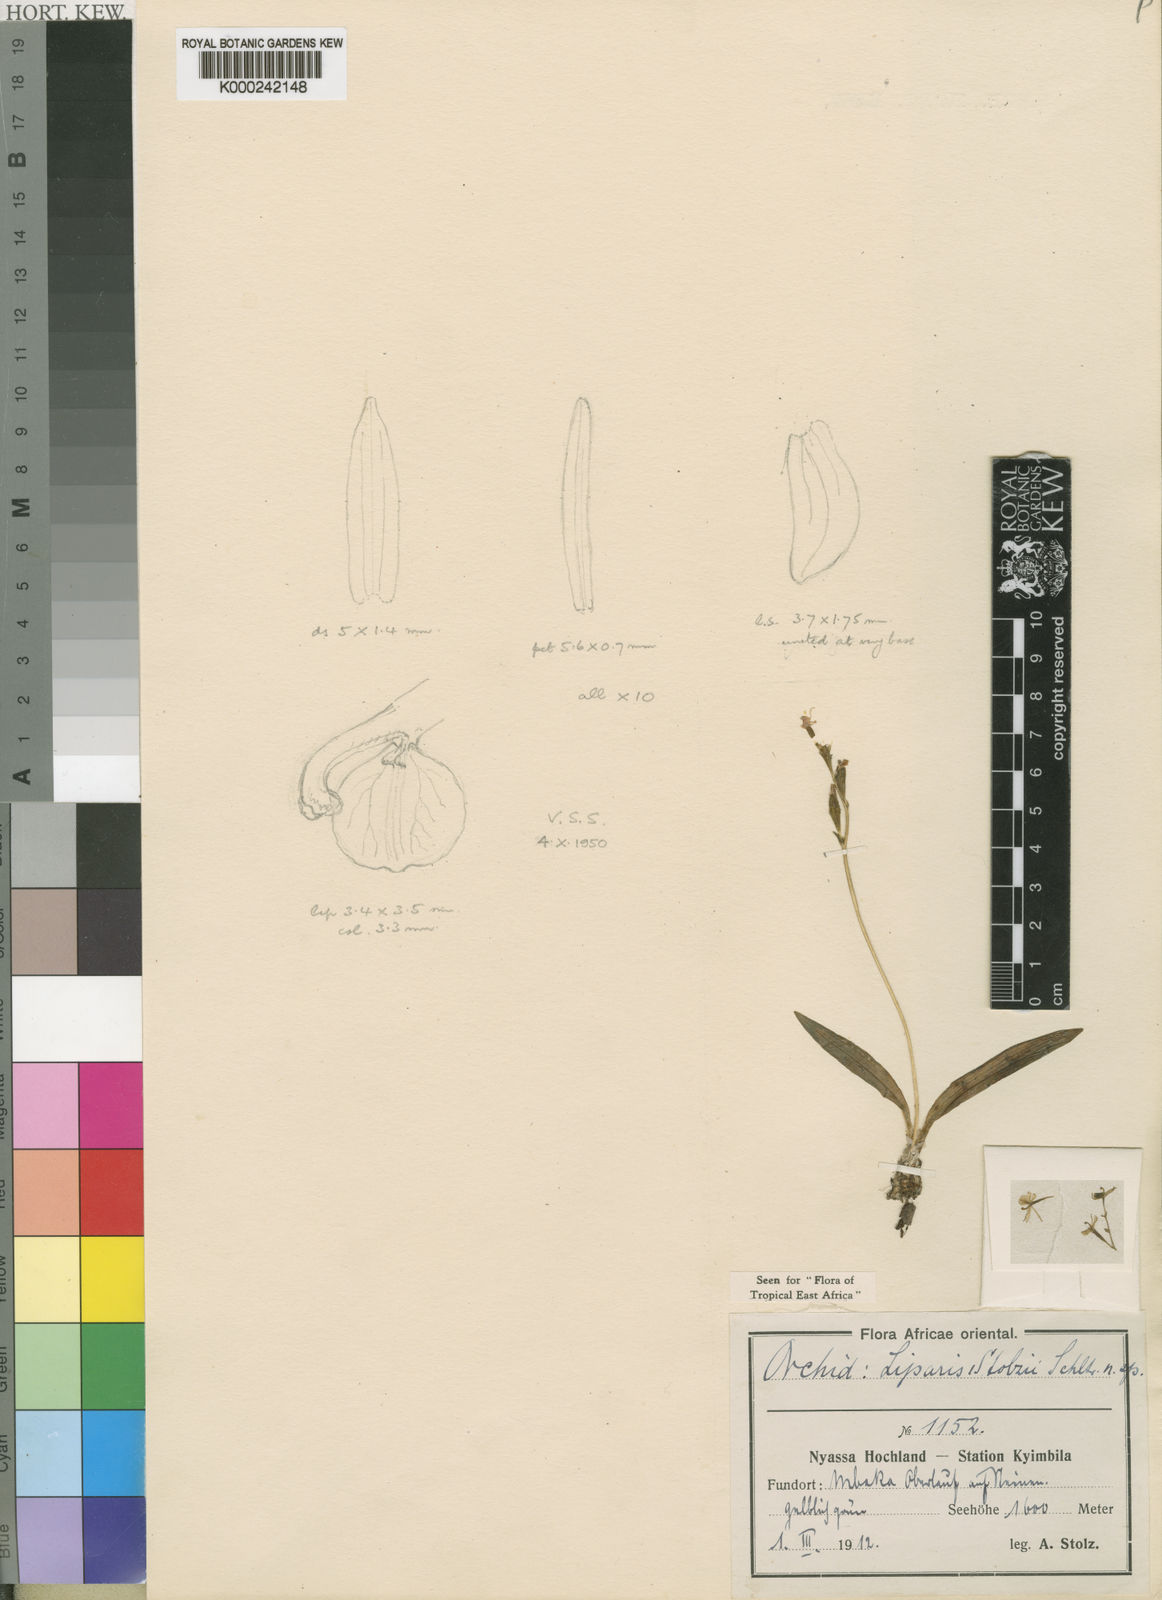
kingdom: Plantae
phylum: Tracheophyta
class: Liliopsida
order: Asparagales
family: Orchidaceae
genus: Liparis
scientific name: Liparis stolzii
